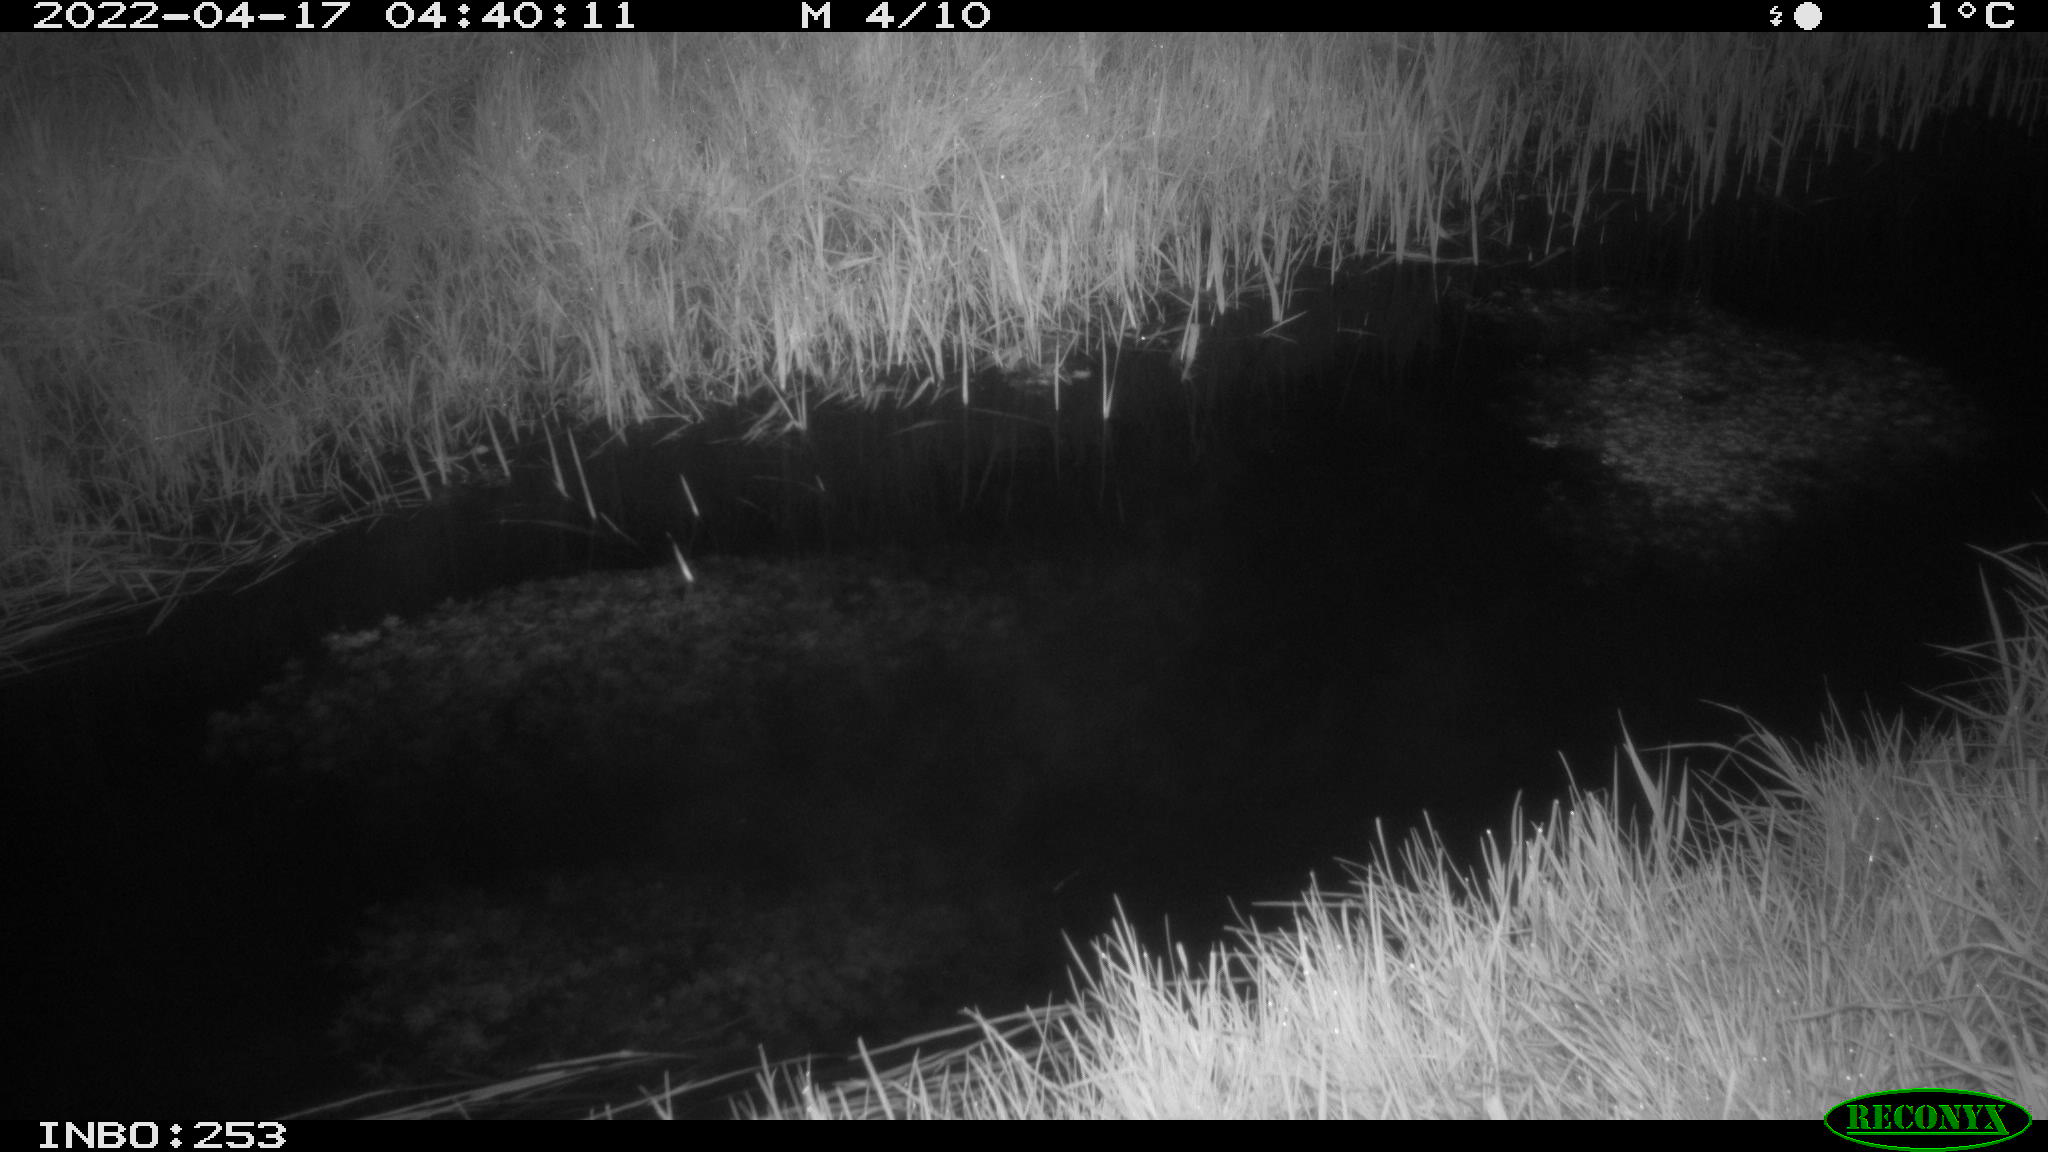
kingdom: Animalia
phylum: Chordata
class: Mammalia
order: Carnivora
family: Mustelidae
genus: Martes
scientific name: Martes foina
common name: Beech marten
